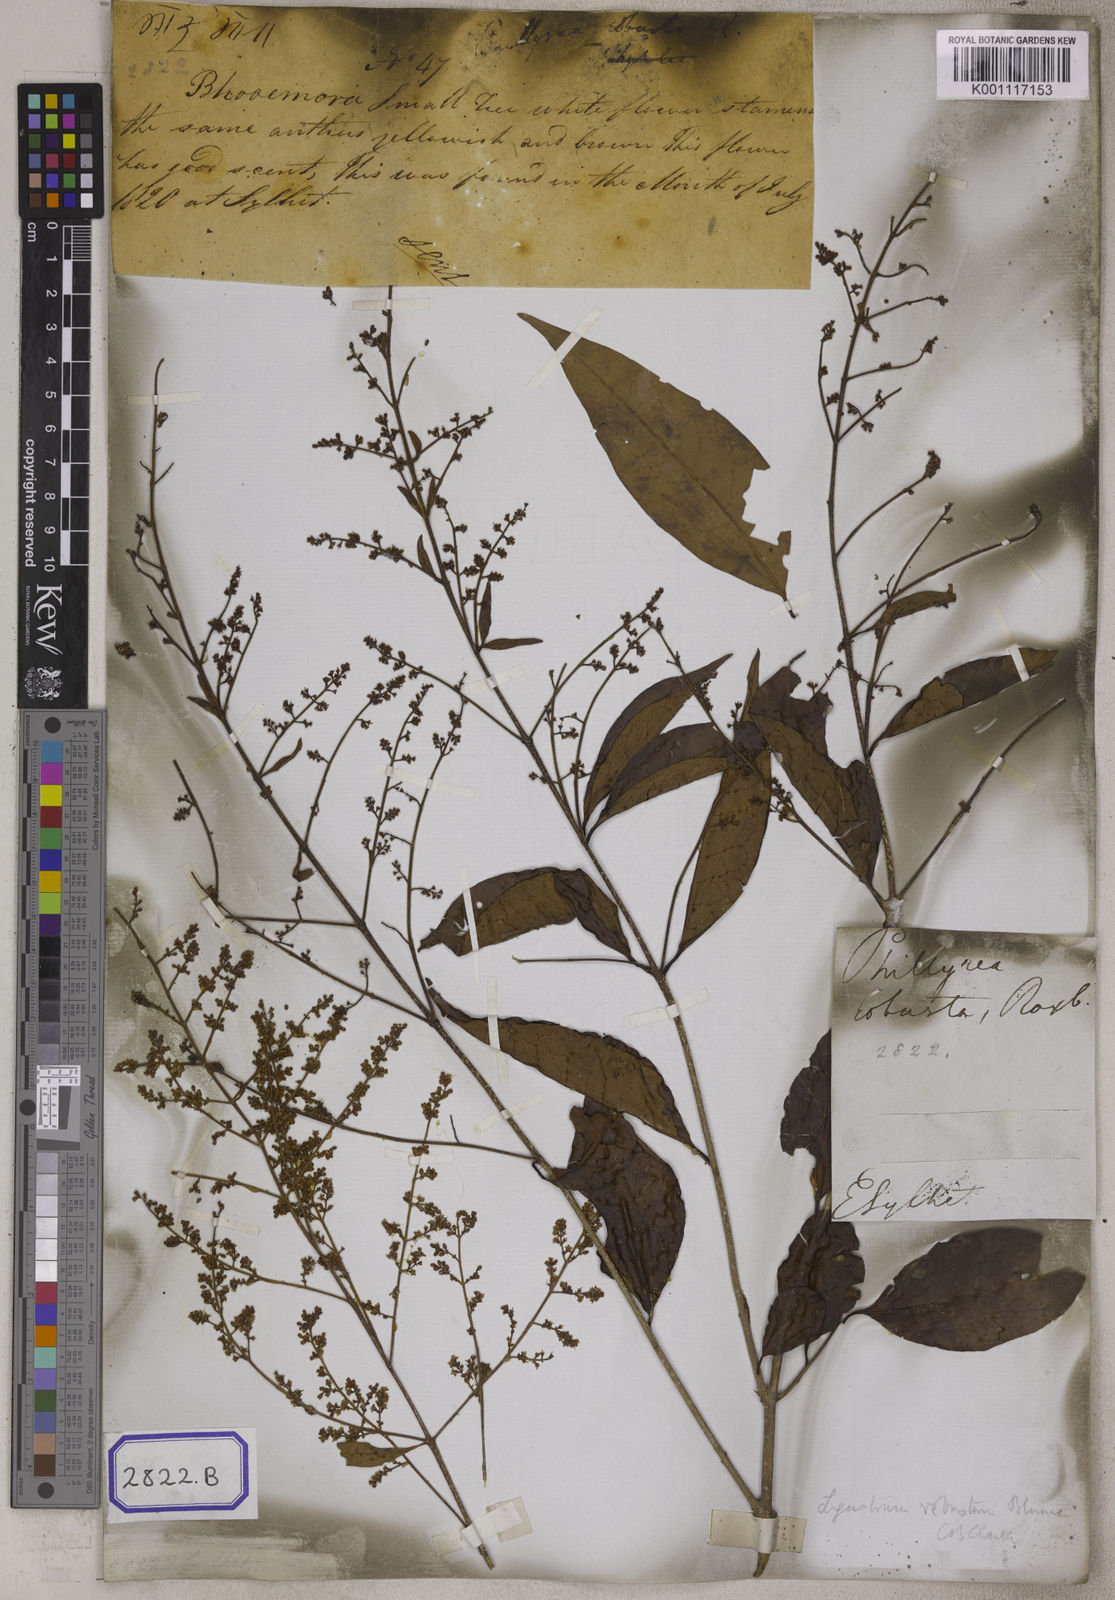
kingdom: Plantae
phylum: Tracheophyta
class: Magnoliopsida
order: Lamiales
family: Oleaceae
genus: Olea
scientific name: Olea
